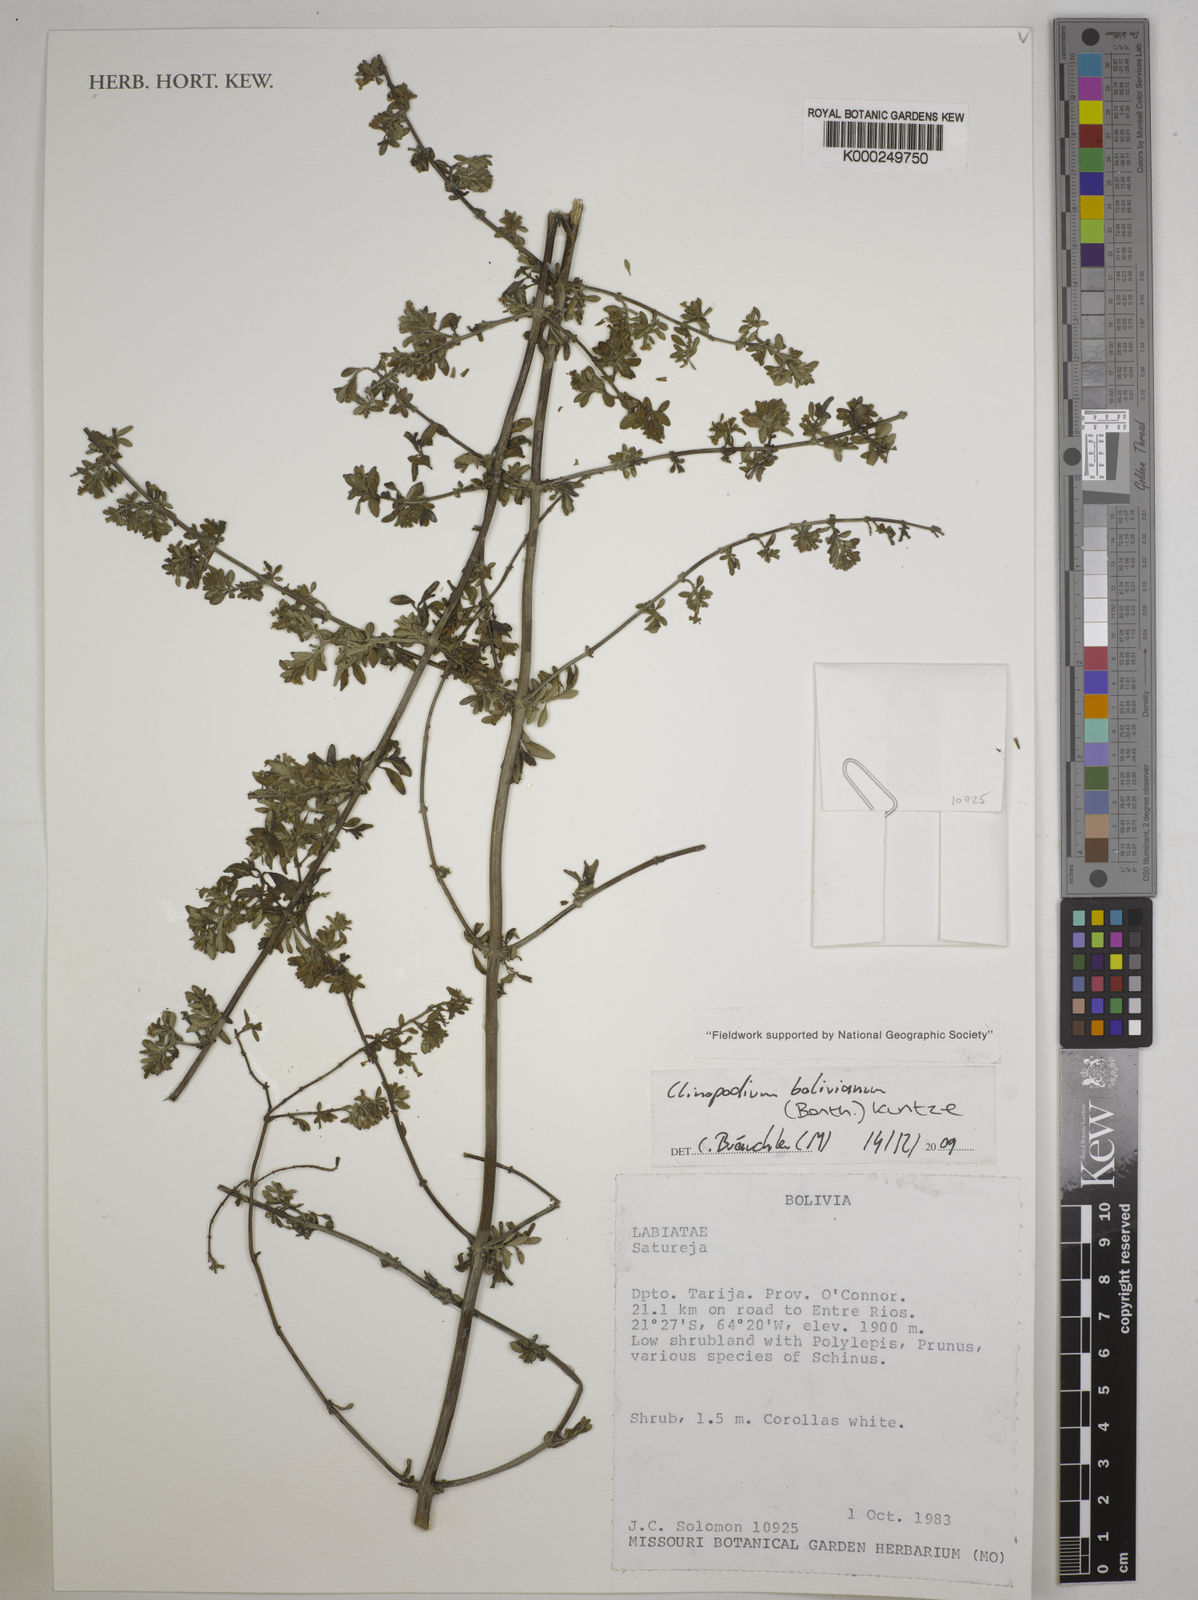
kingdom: Plantae
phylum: Tracheophyta
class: Magnoliopsida
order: Lamiales
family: Lamiaceae
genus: Clinopodium
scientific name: Clinopodium bolivianum
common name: Inca muña
